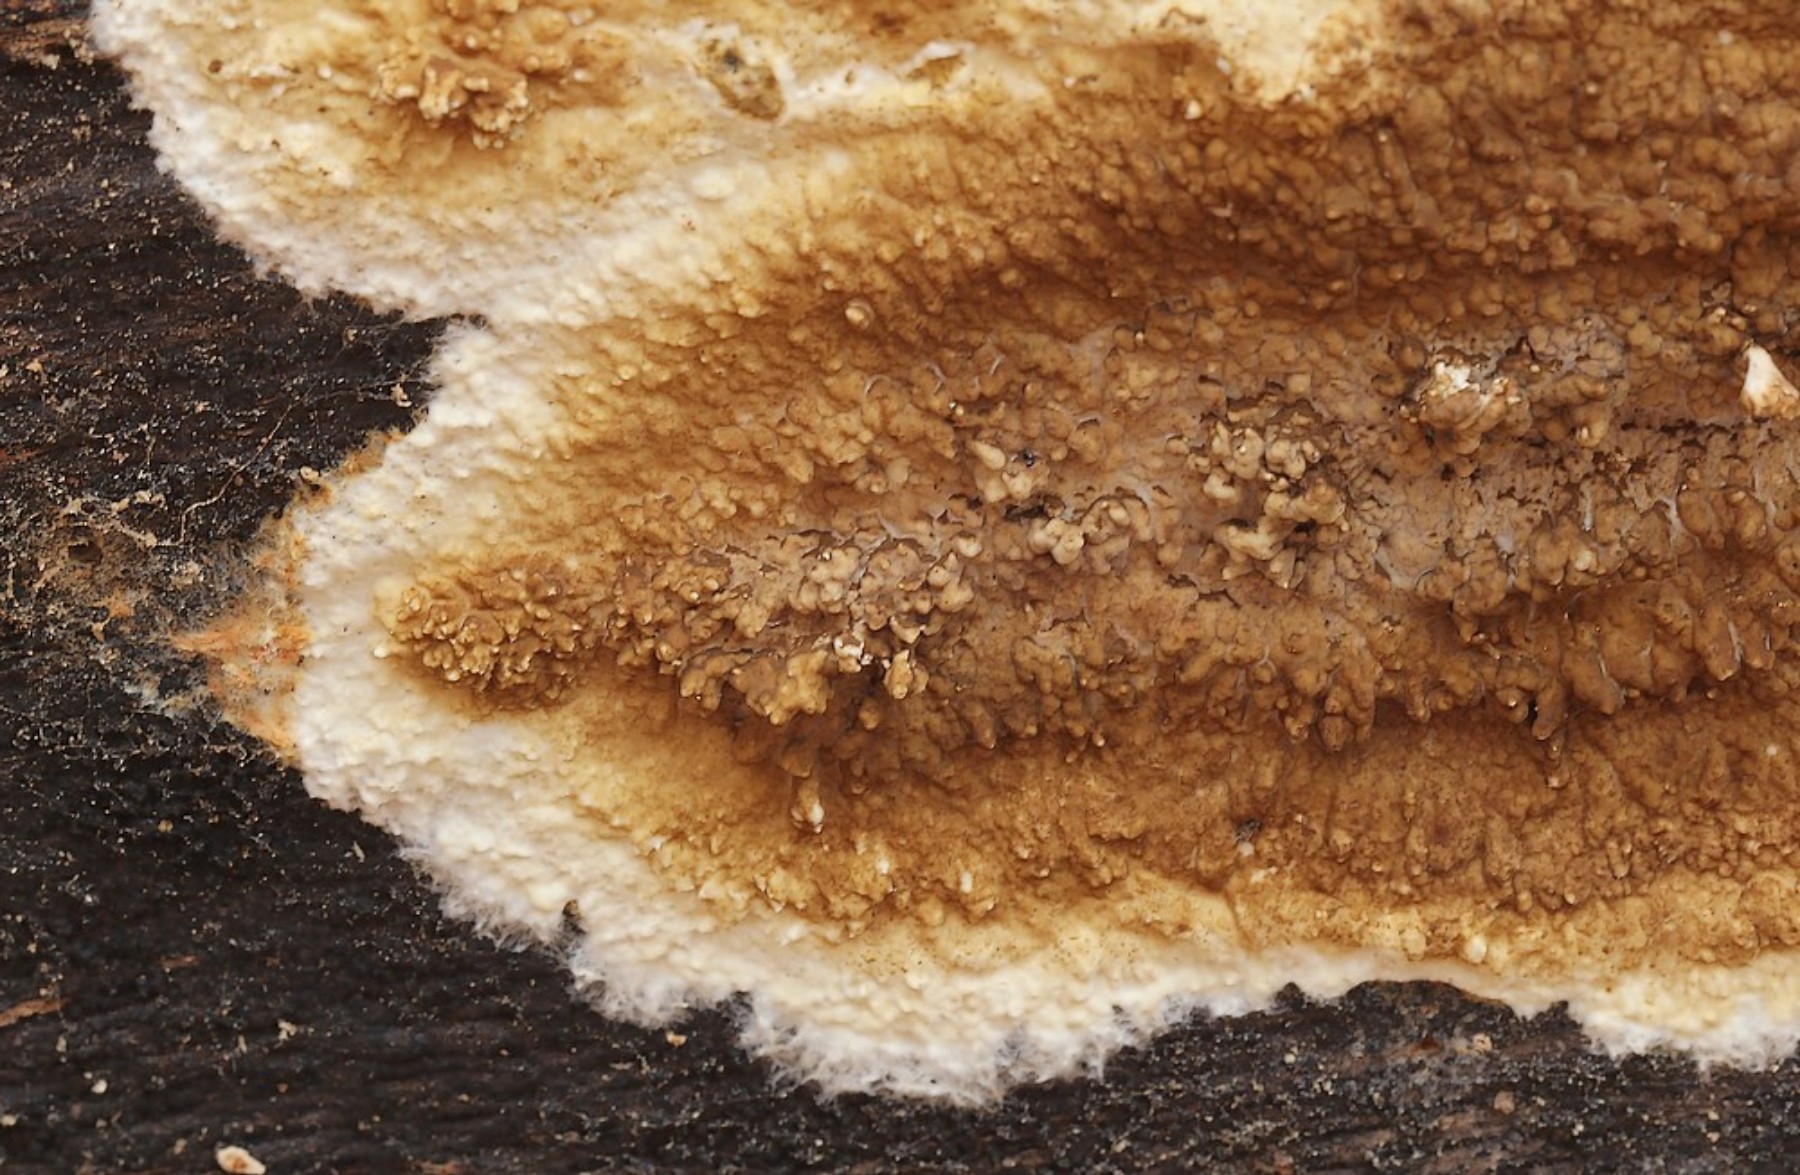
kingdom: Fungi
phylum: Basidiomycota
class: Agaricomycetes
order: Boletales
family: Coniophoraceae
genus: Coniophora
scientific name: Coniophora puteana
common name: gul tømmersvamp
